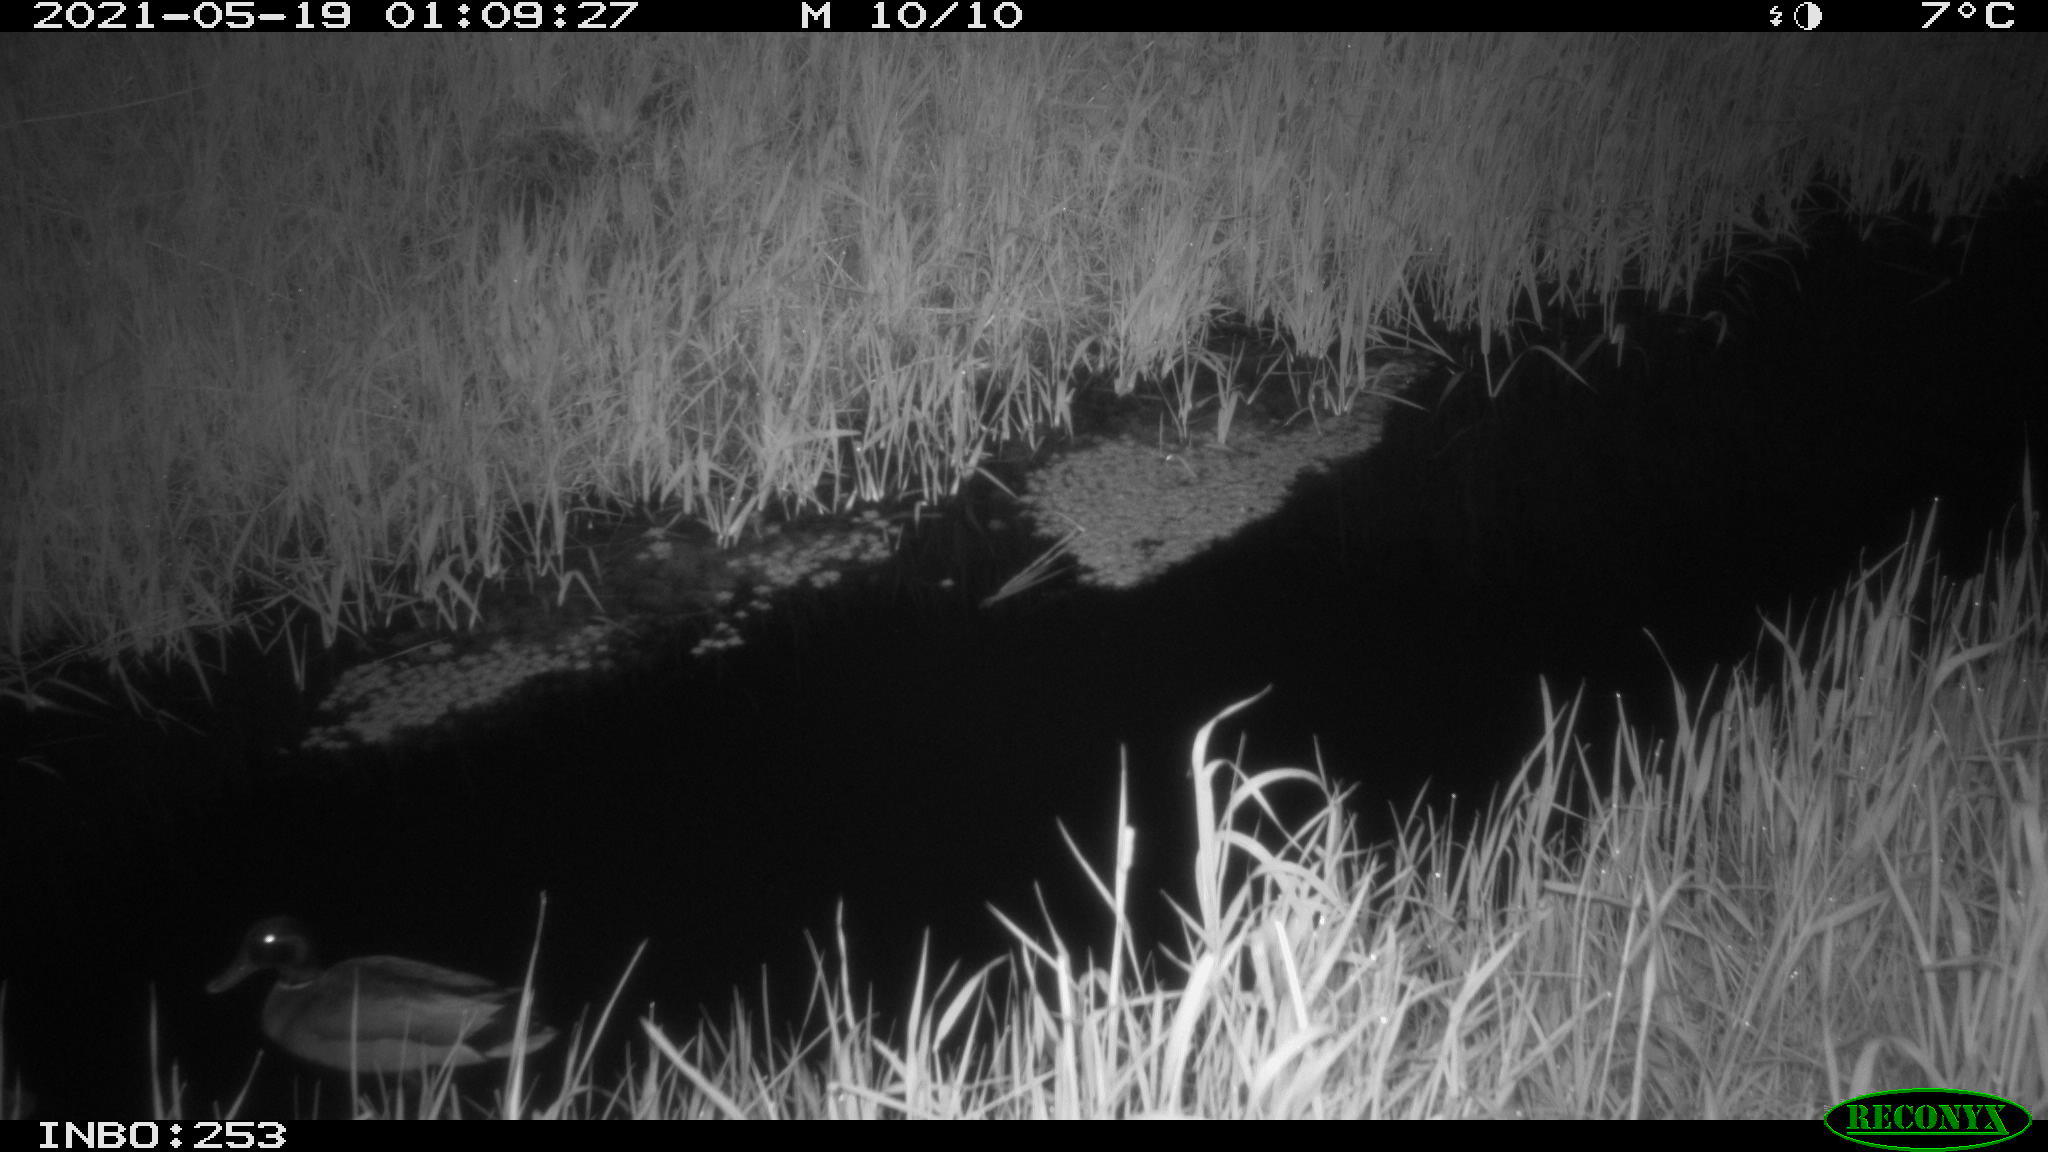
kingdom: Animalia
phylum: Chordata
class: Aves
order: Anseriformes
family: Anatidae
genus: Anas
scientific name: Anas platyrhynchos
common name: Mallard
